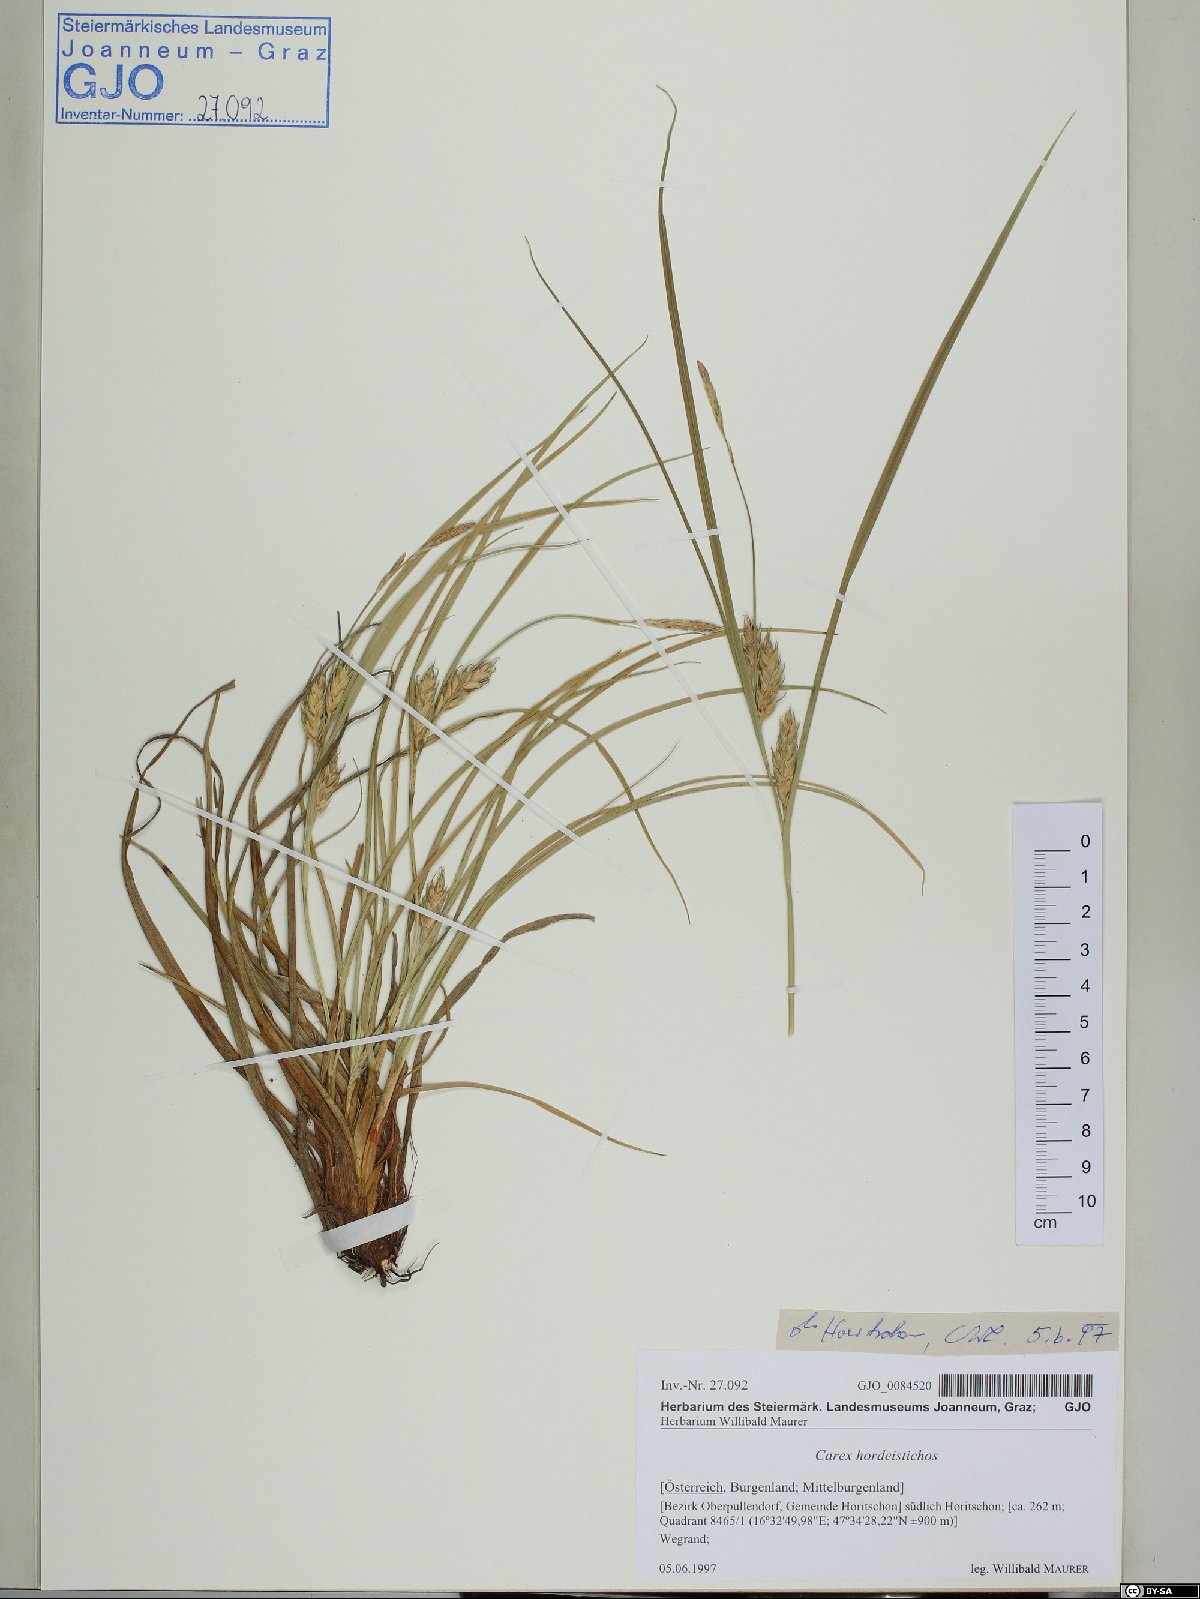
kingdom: Plantae
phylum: Tracheophyta
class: Liliopsida
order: Poales
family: Cyperaceae
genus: Carex
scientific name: Carex hordeistichos
